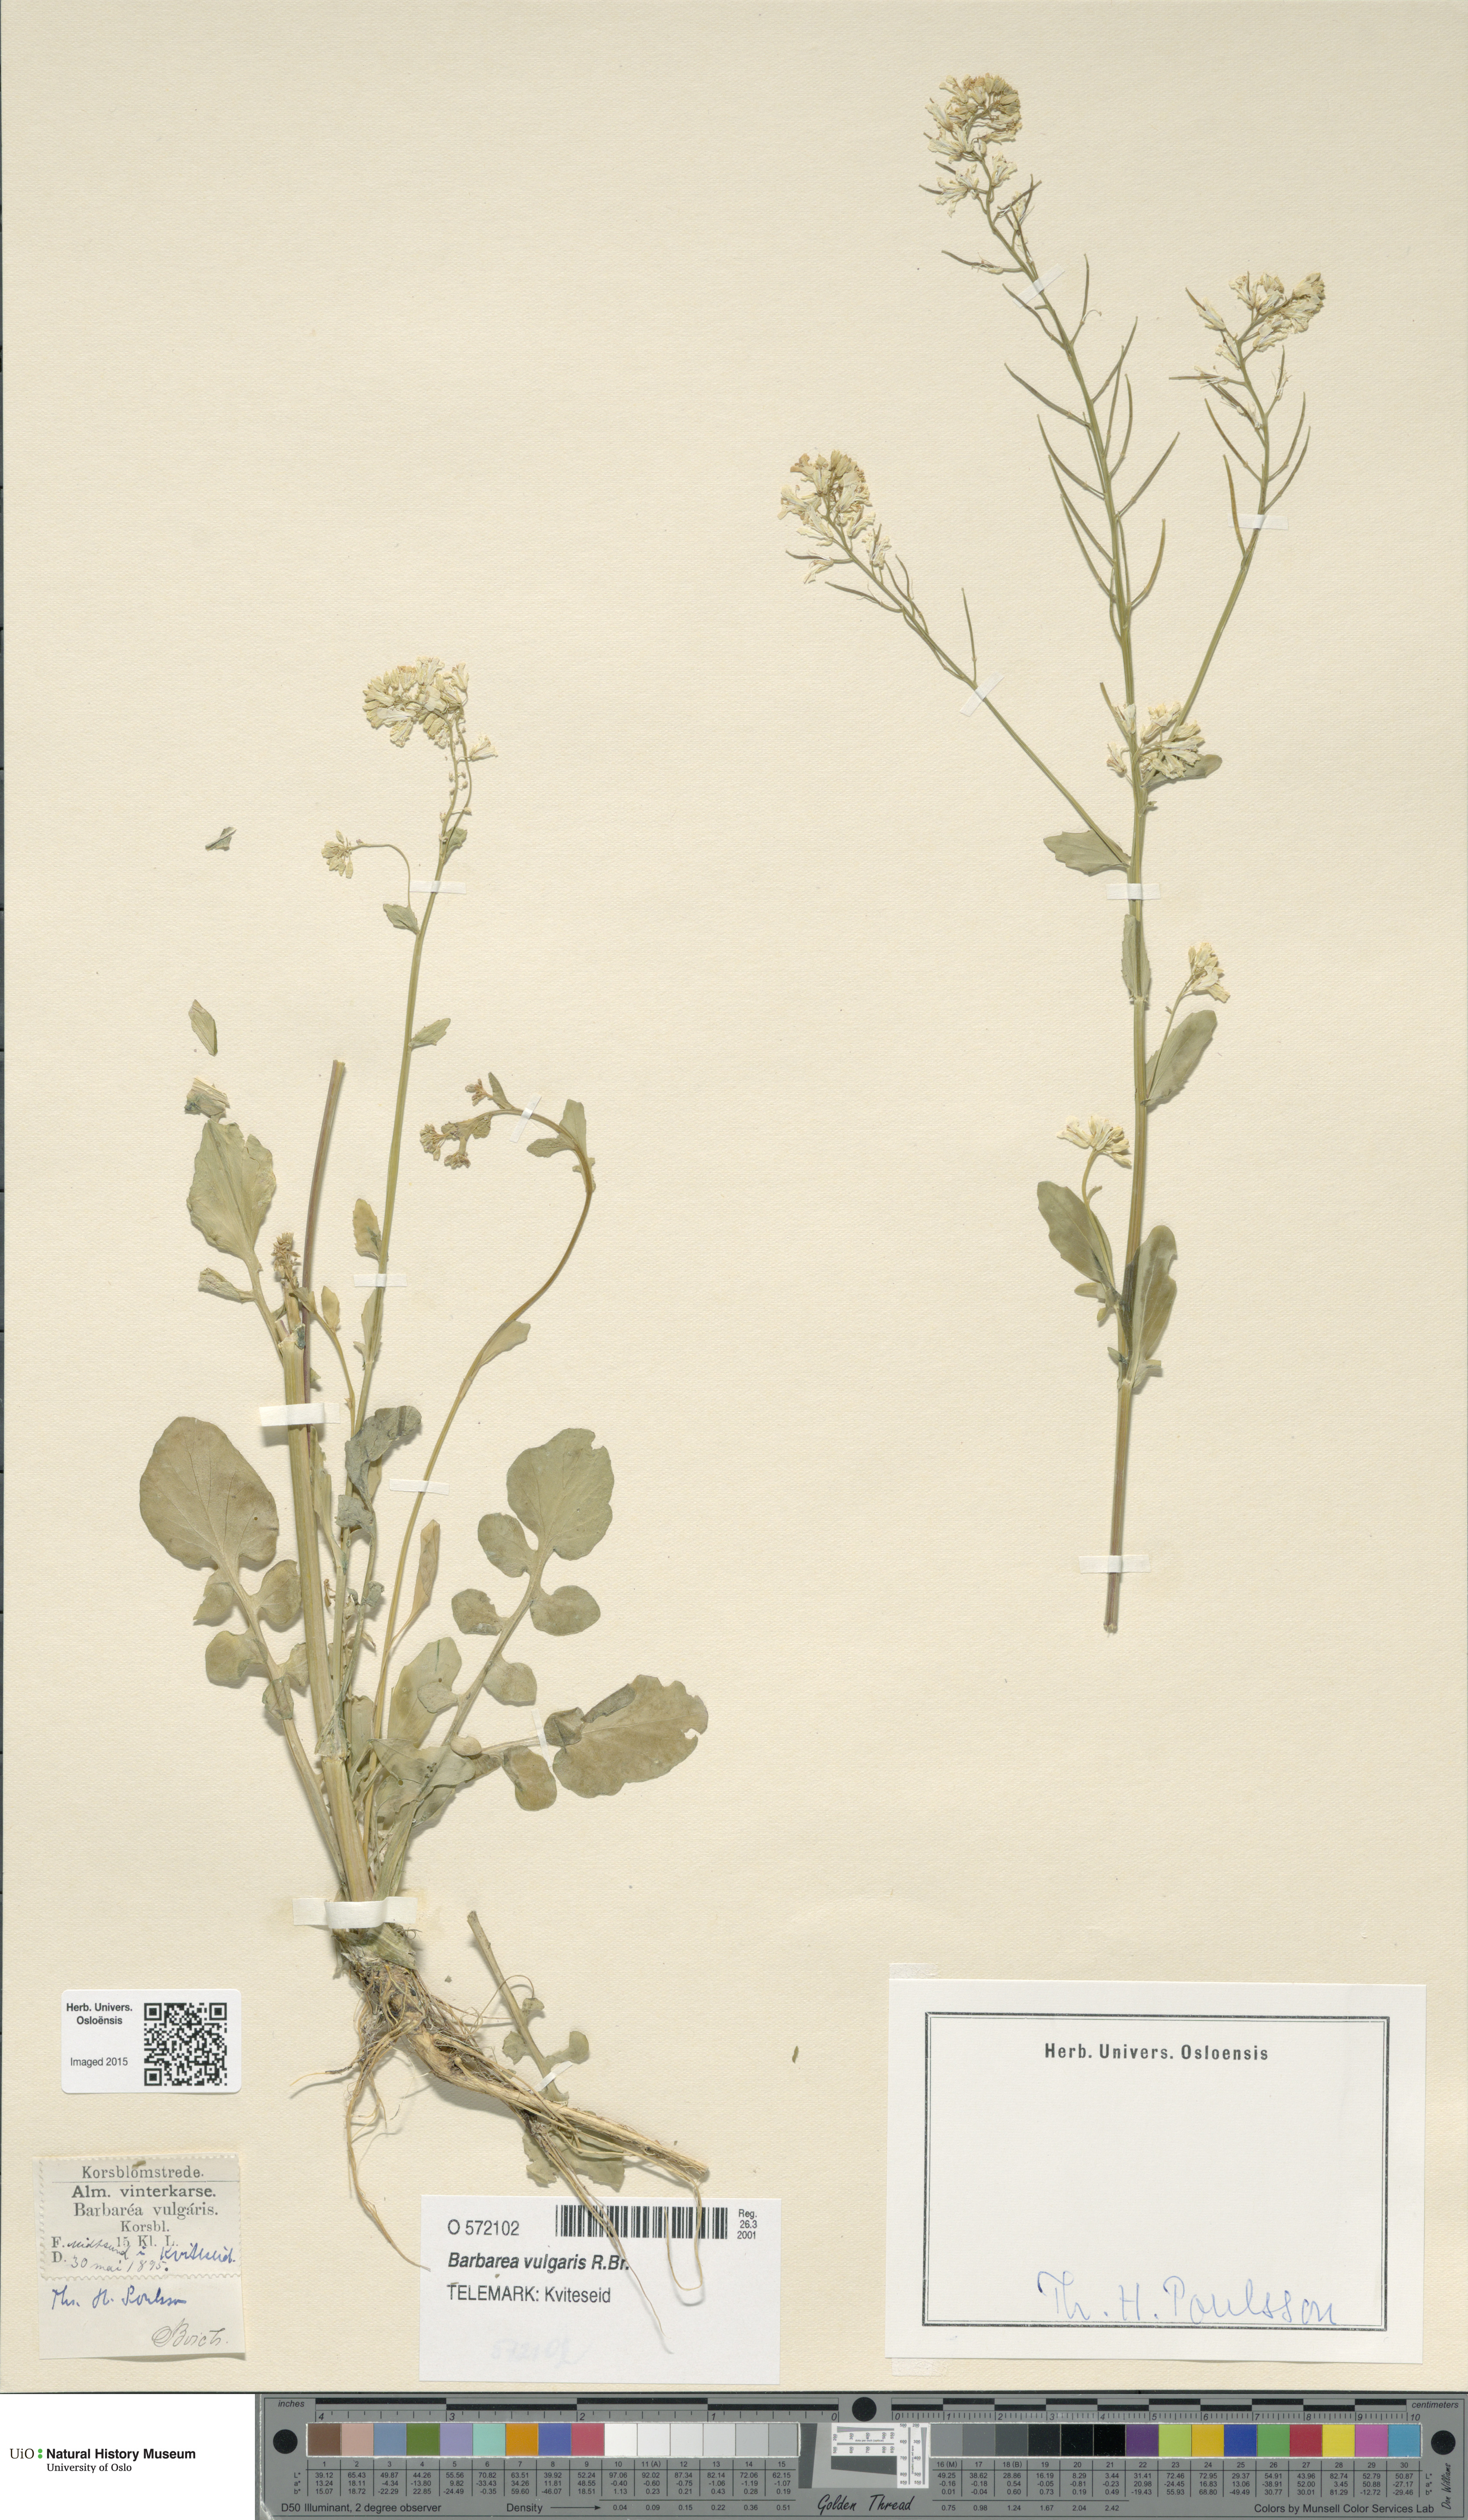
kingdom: Plantae
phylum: Tracheophyta
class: Magnoliopsida
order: Brassicales
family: Brassicaceae
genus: Barbarea
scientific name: Barbarea vulgaris
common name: Cressy-greens
